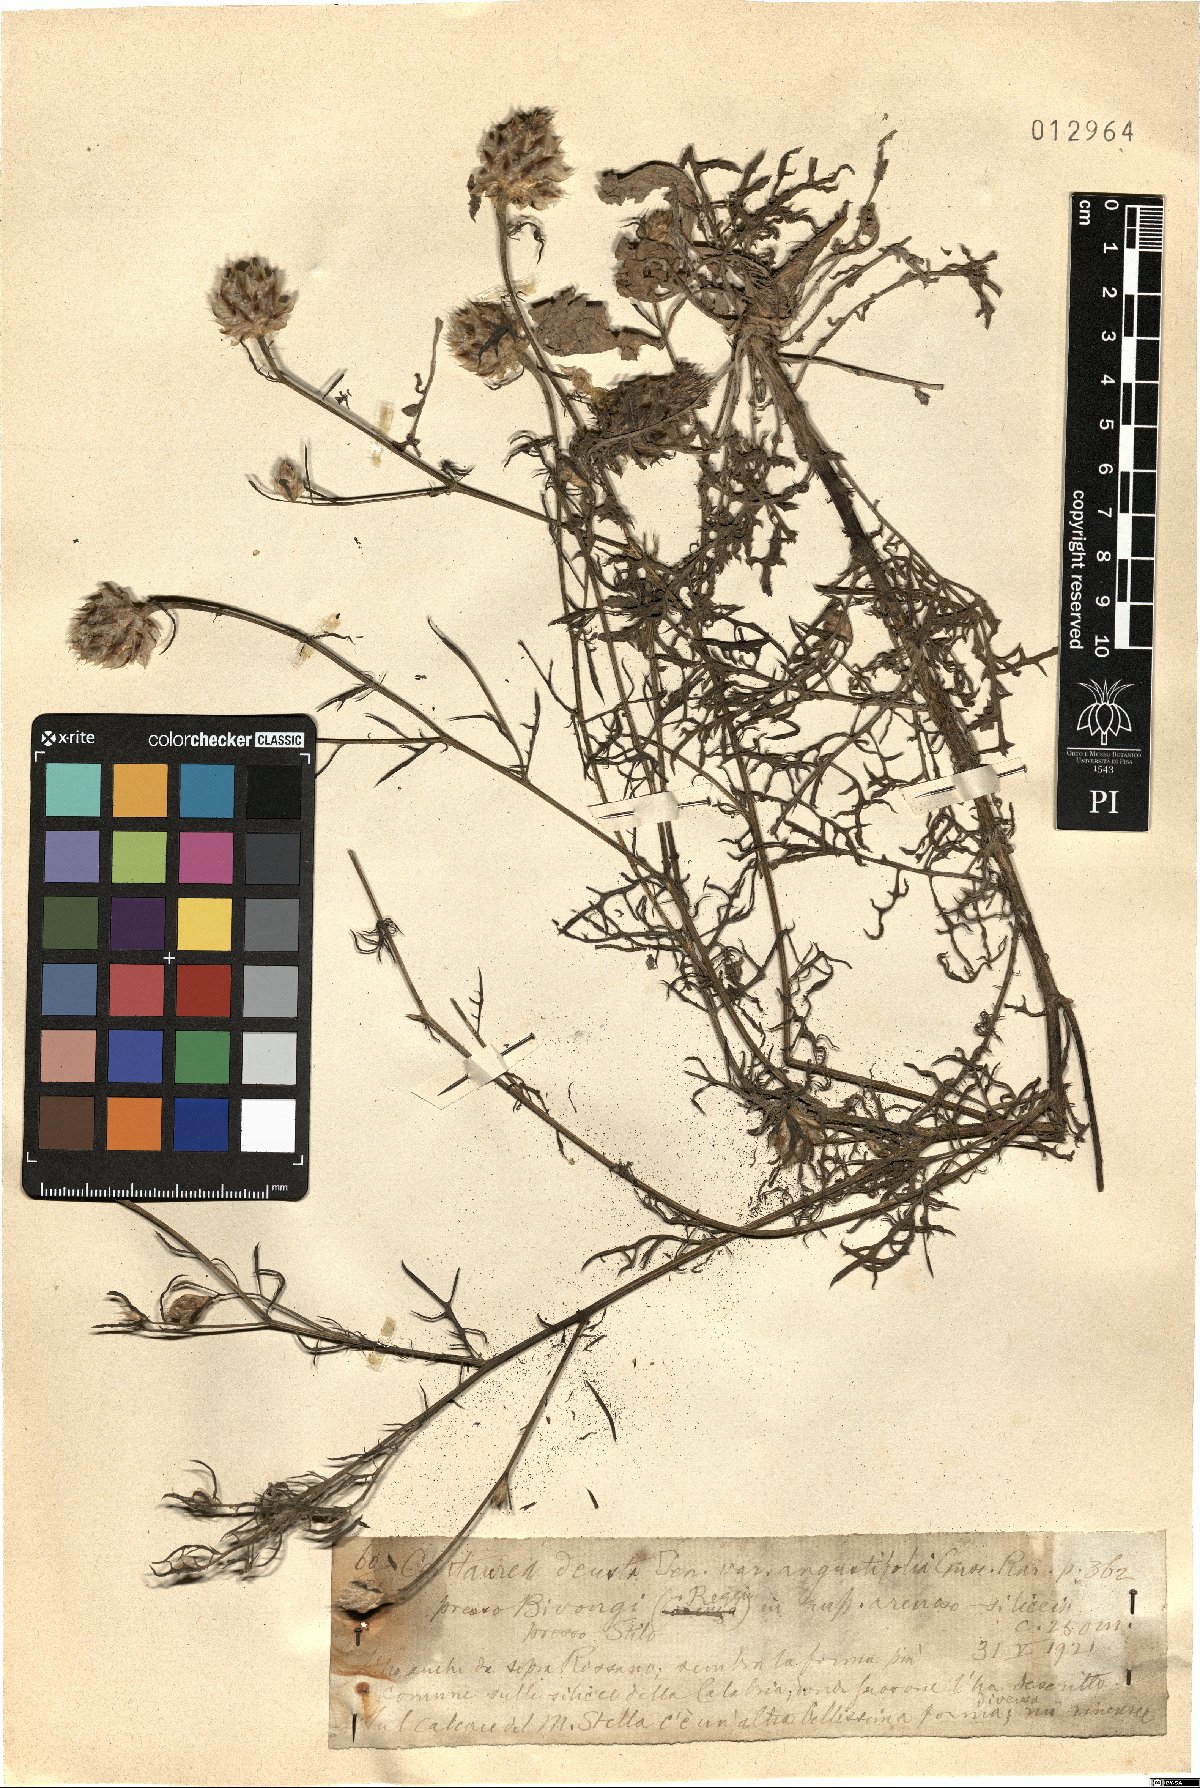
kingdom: Plantae
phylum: Tracheophyta
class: Magnoliopsida
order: Asterales
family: Asteraceae
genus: Centaurea
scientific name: Centaurea deusta
